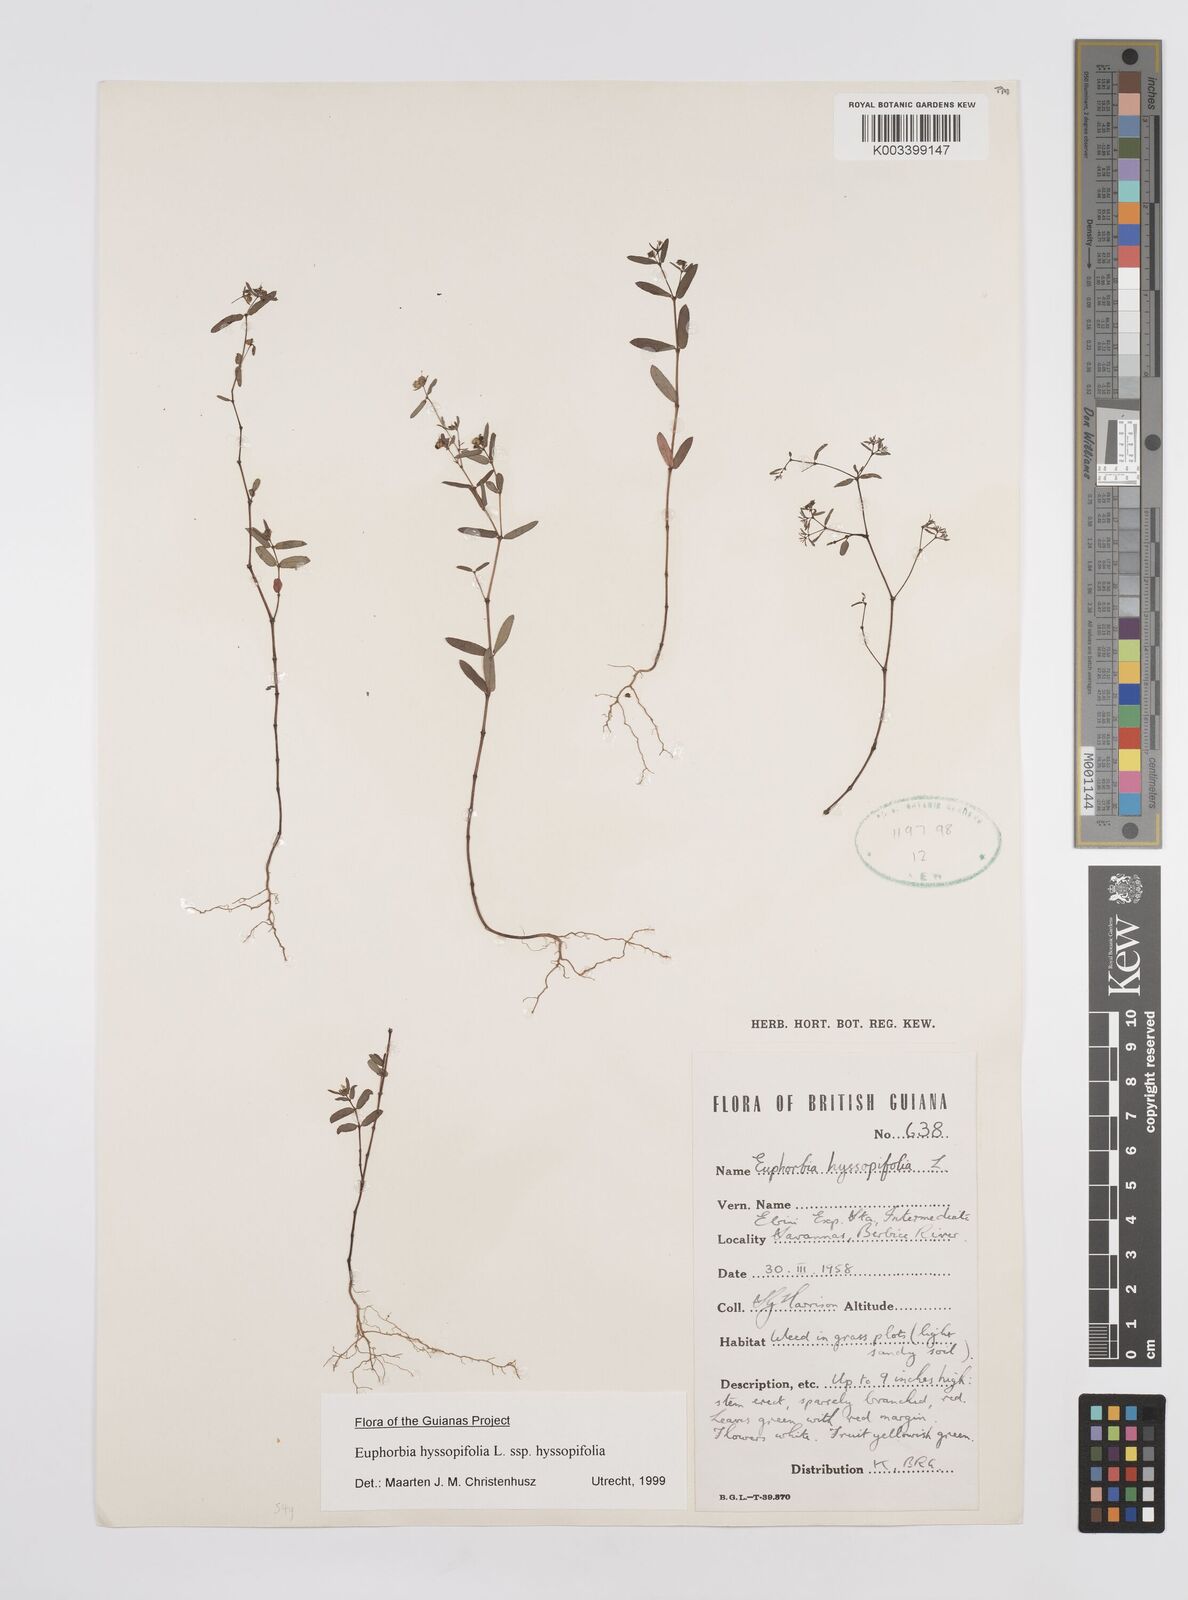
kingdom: Plantae
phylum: Tracheophyta
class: Magnoliopsida
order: Malpighiales
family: Euphorbiaceae
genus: Euphorbia
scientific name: Euphorbia hyssopifolia
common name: Hyssopleaf sandmat
